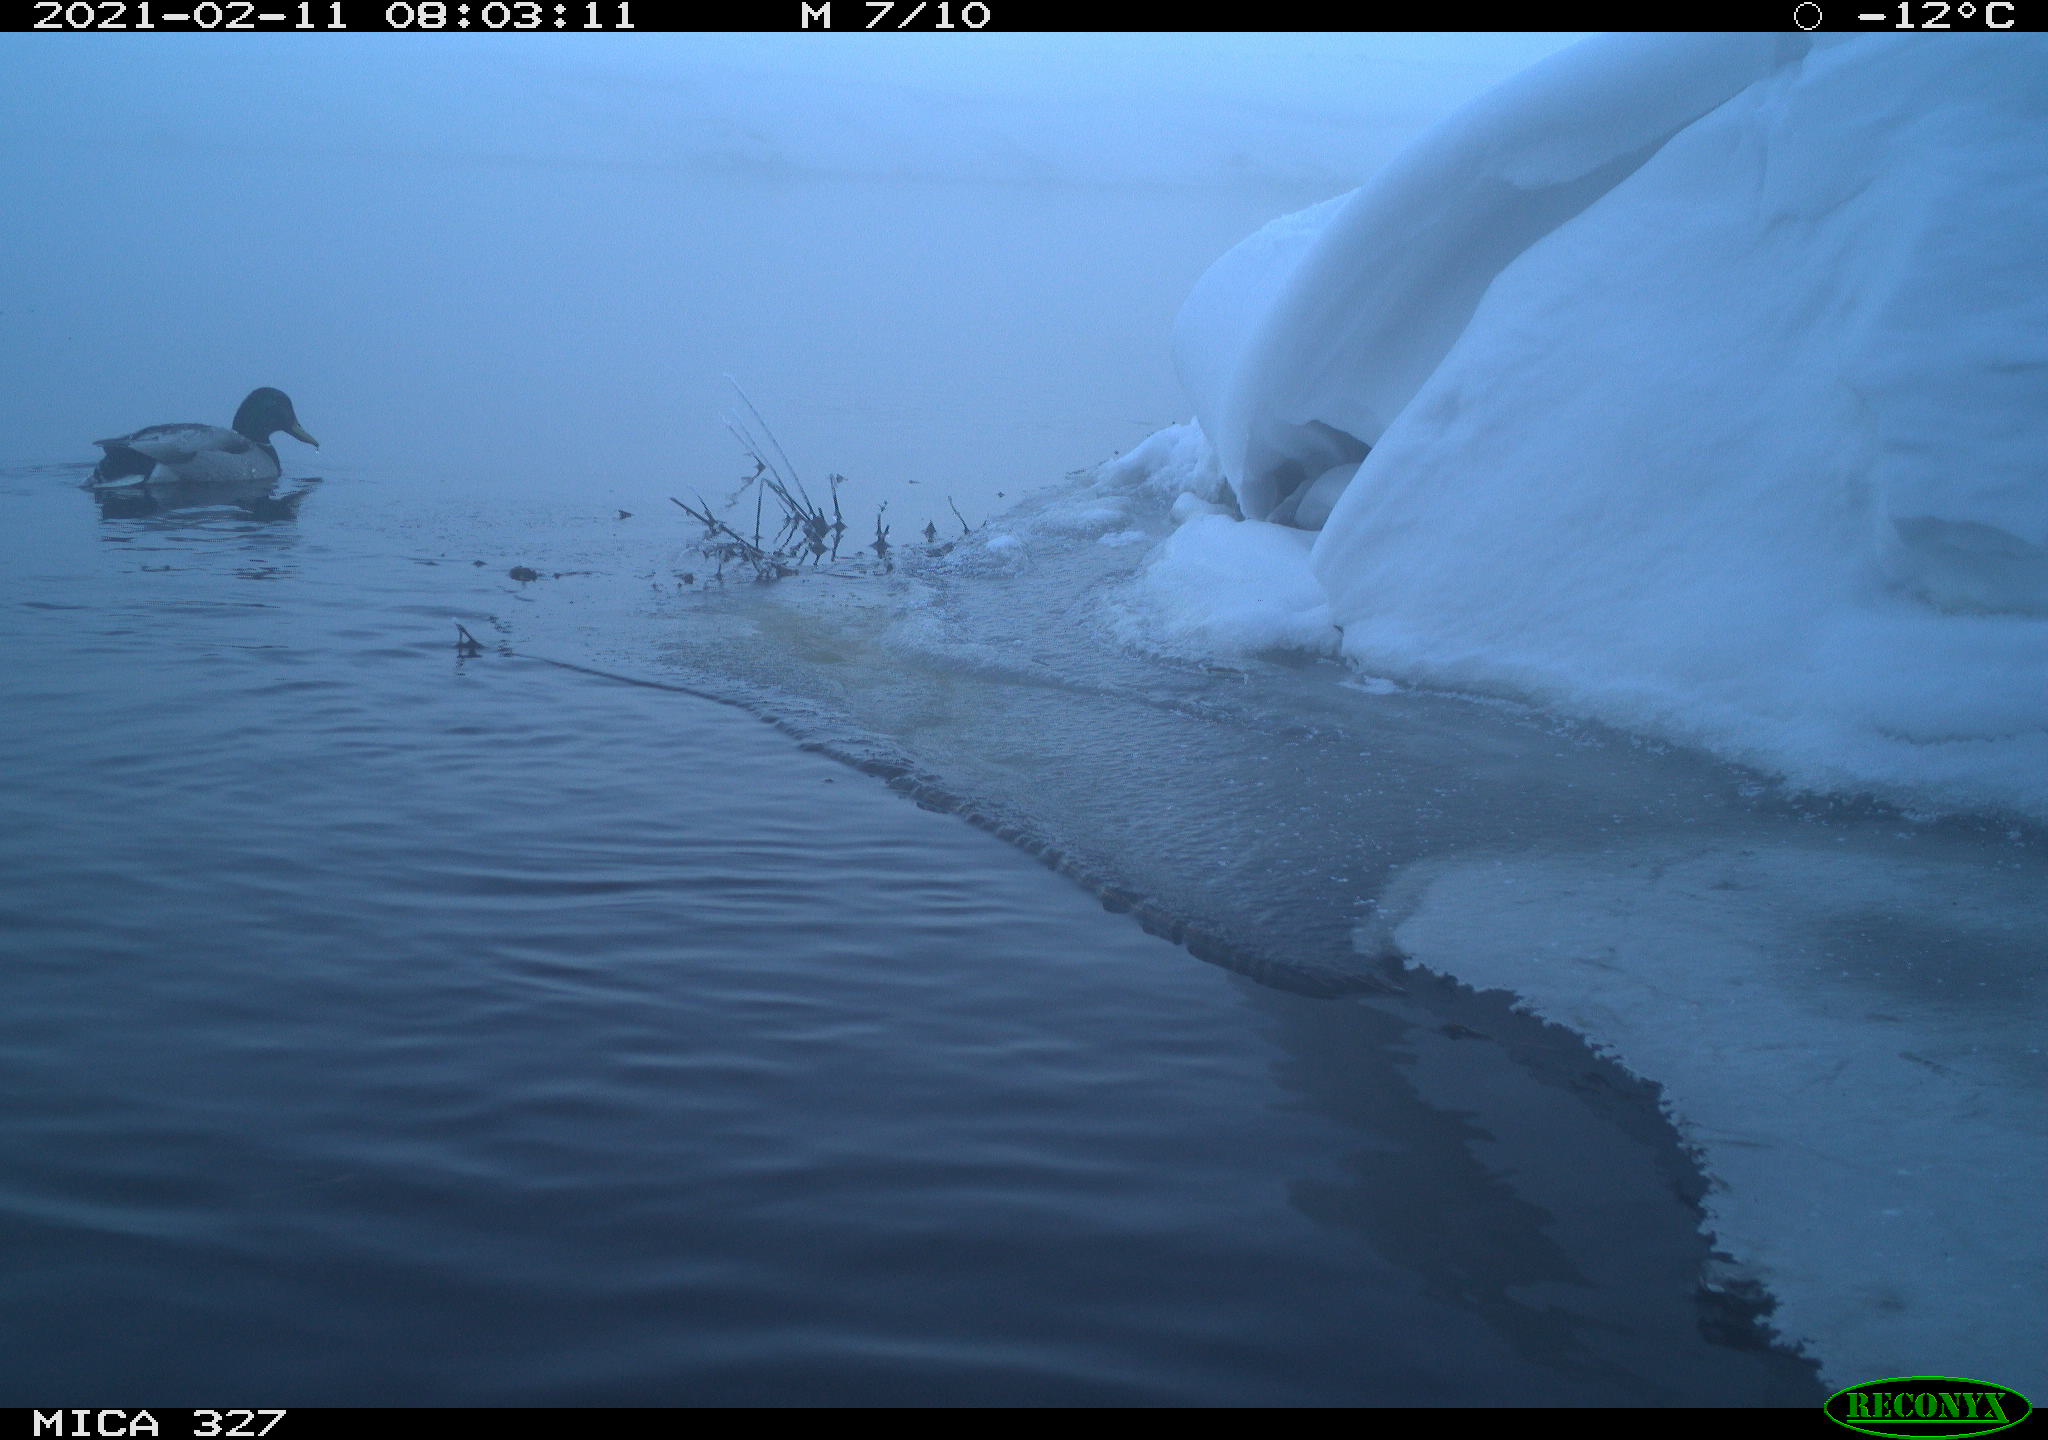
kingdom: Animalia
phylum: Chordata
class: Aves
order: Anseriformes
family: Anatidae
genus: Anas
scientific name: Anas platyrhynchos
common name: Mallard
